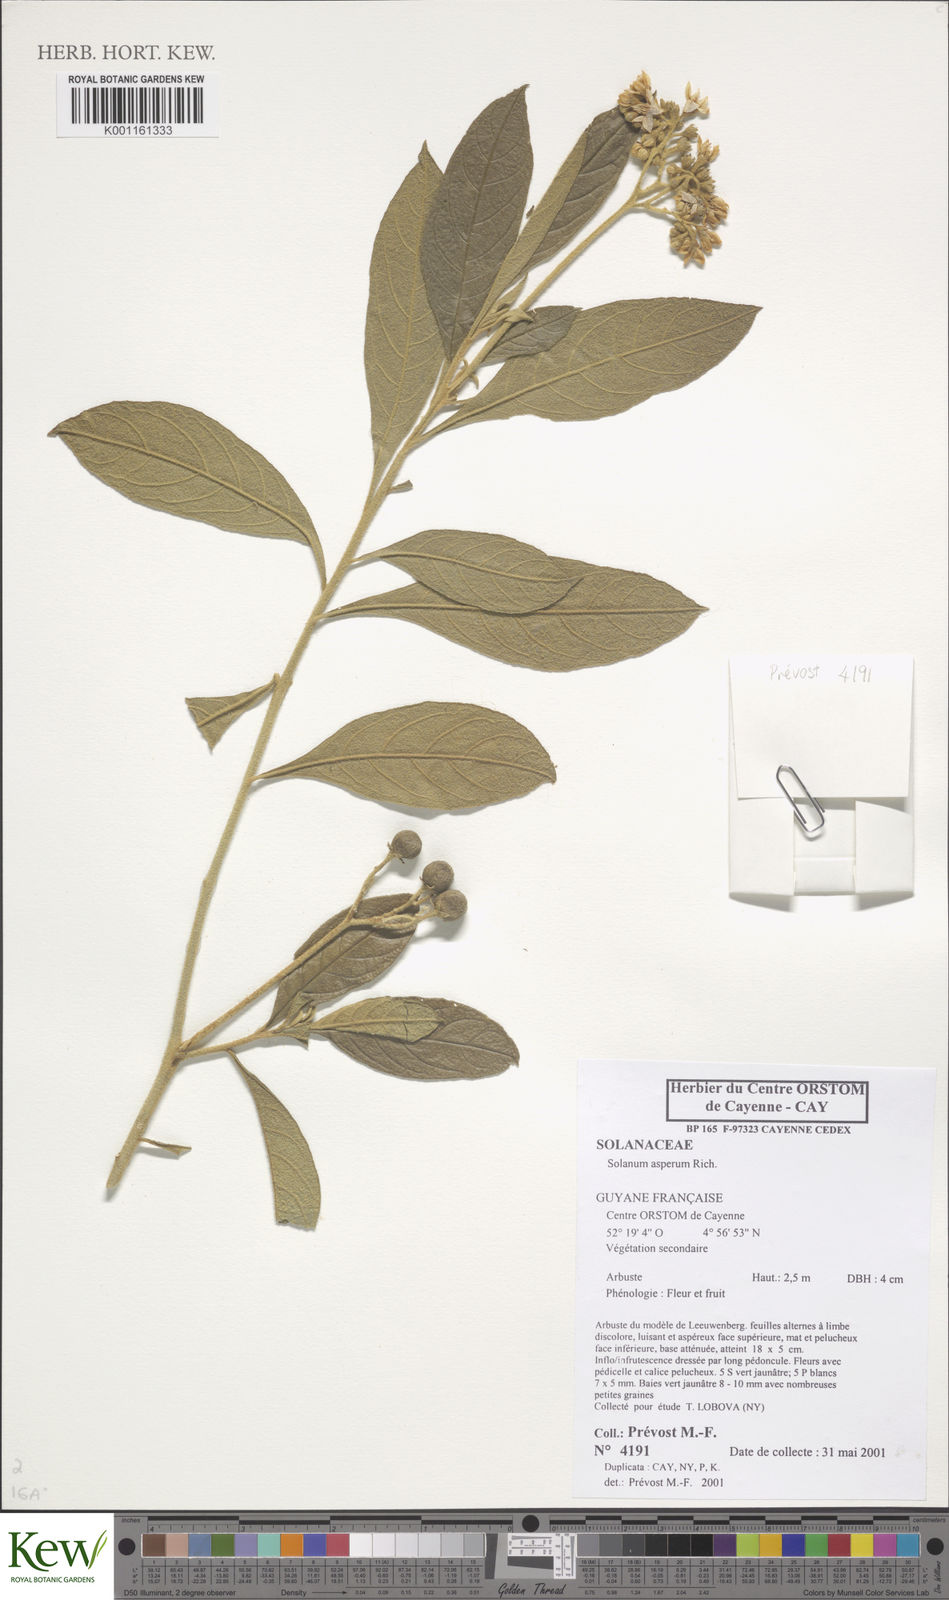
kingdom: Plantae
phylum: Tracheophyta
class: Magnoliopsida
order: Solanales
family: Solanaceae
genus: Solanum
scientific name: Solanum asperum
